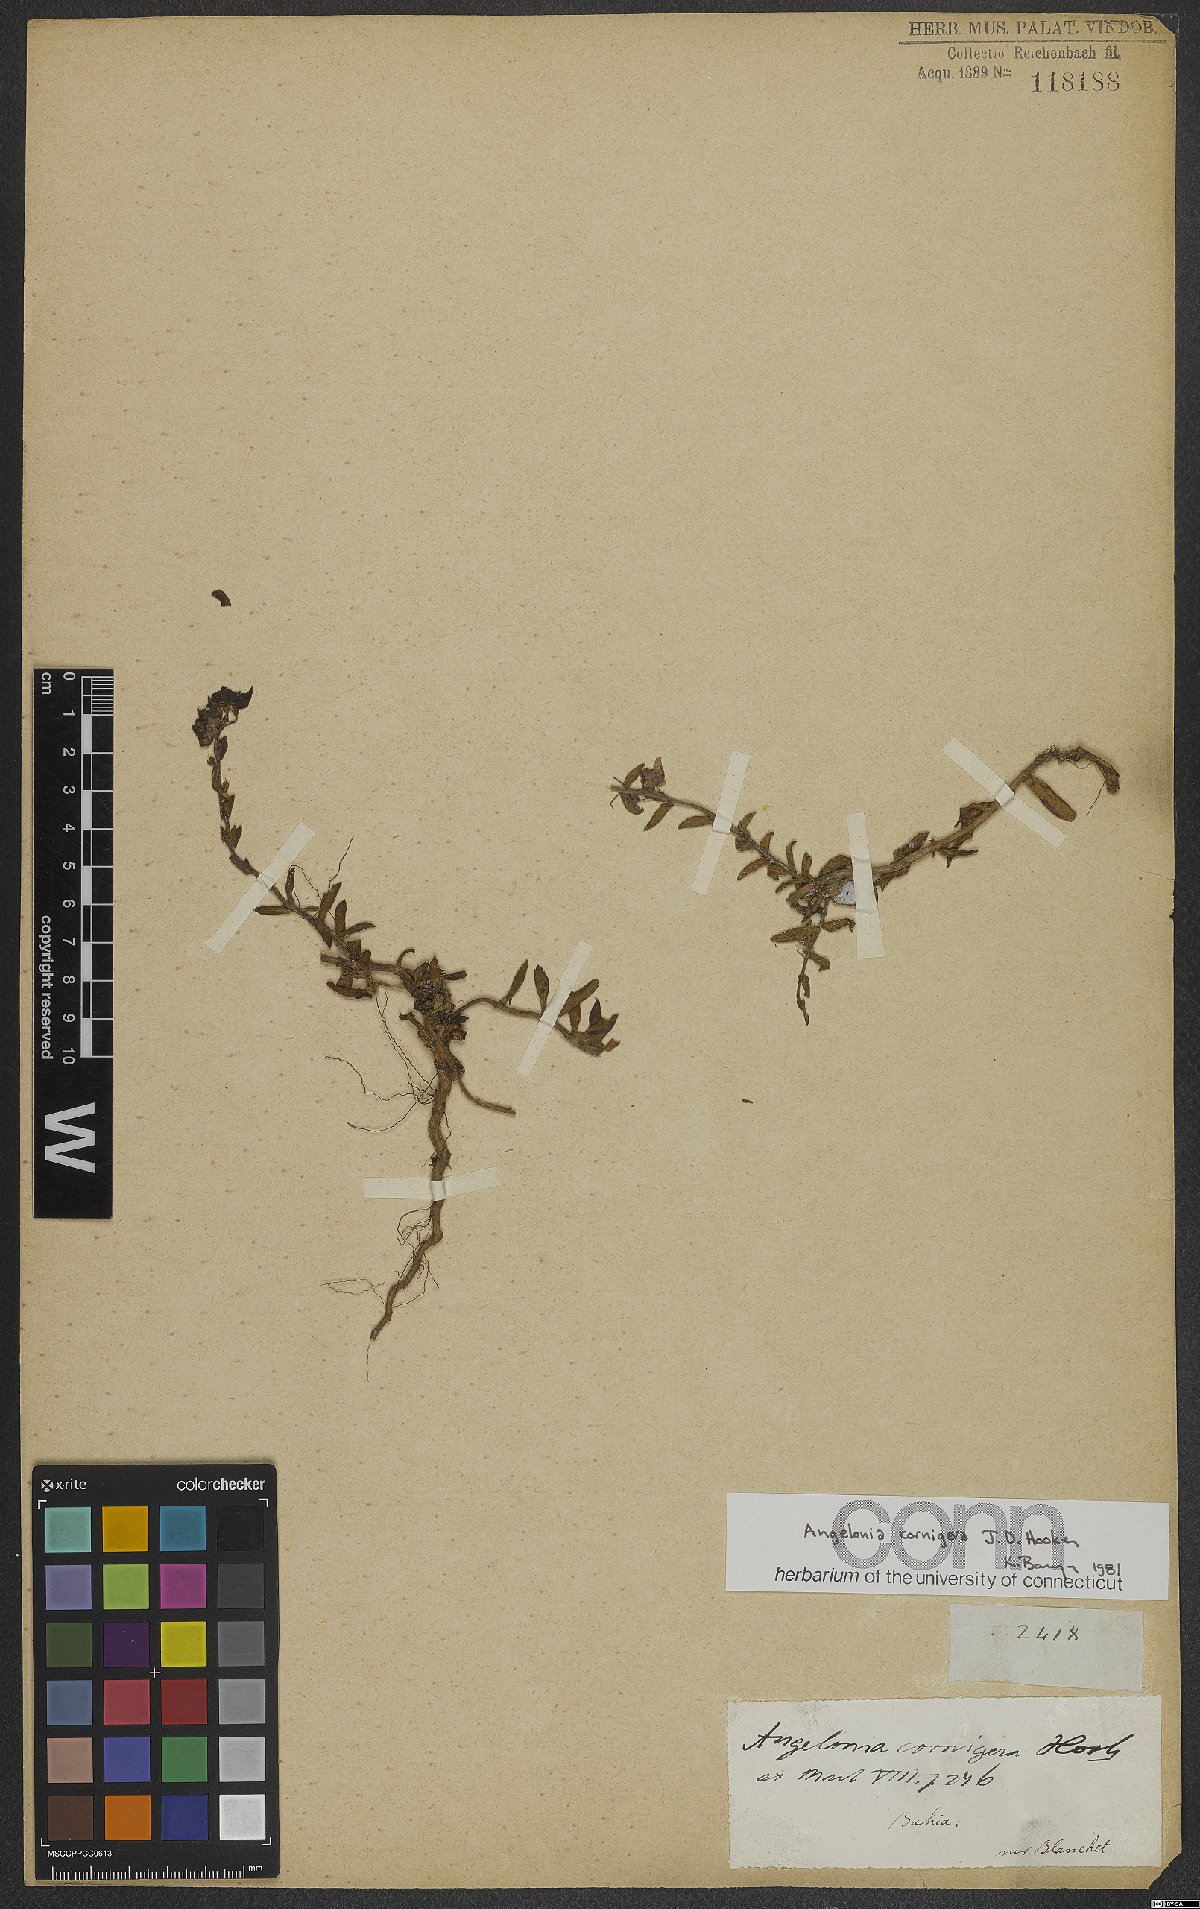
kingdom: Plantae
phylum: Tracheophyta
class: Magnoliopsida
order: Lamiales
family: Plantaginaceae
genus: Angelonia
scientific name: Angelonia cornigera
